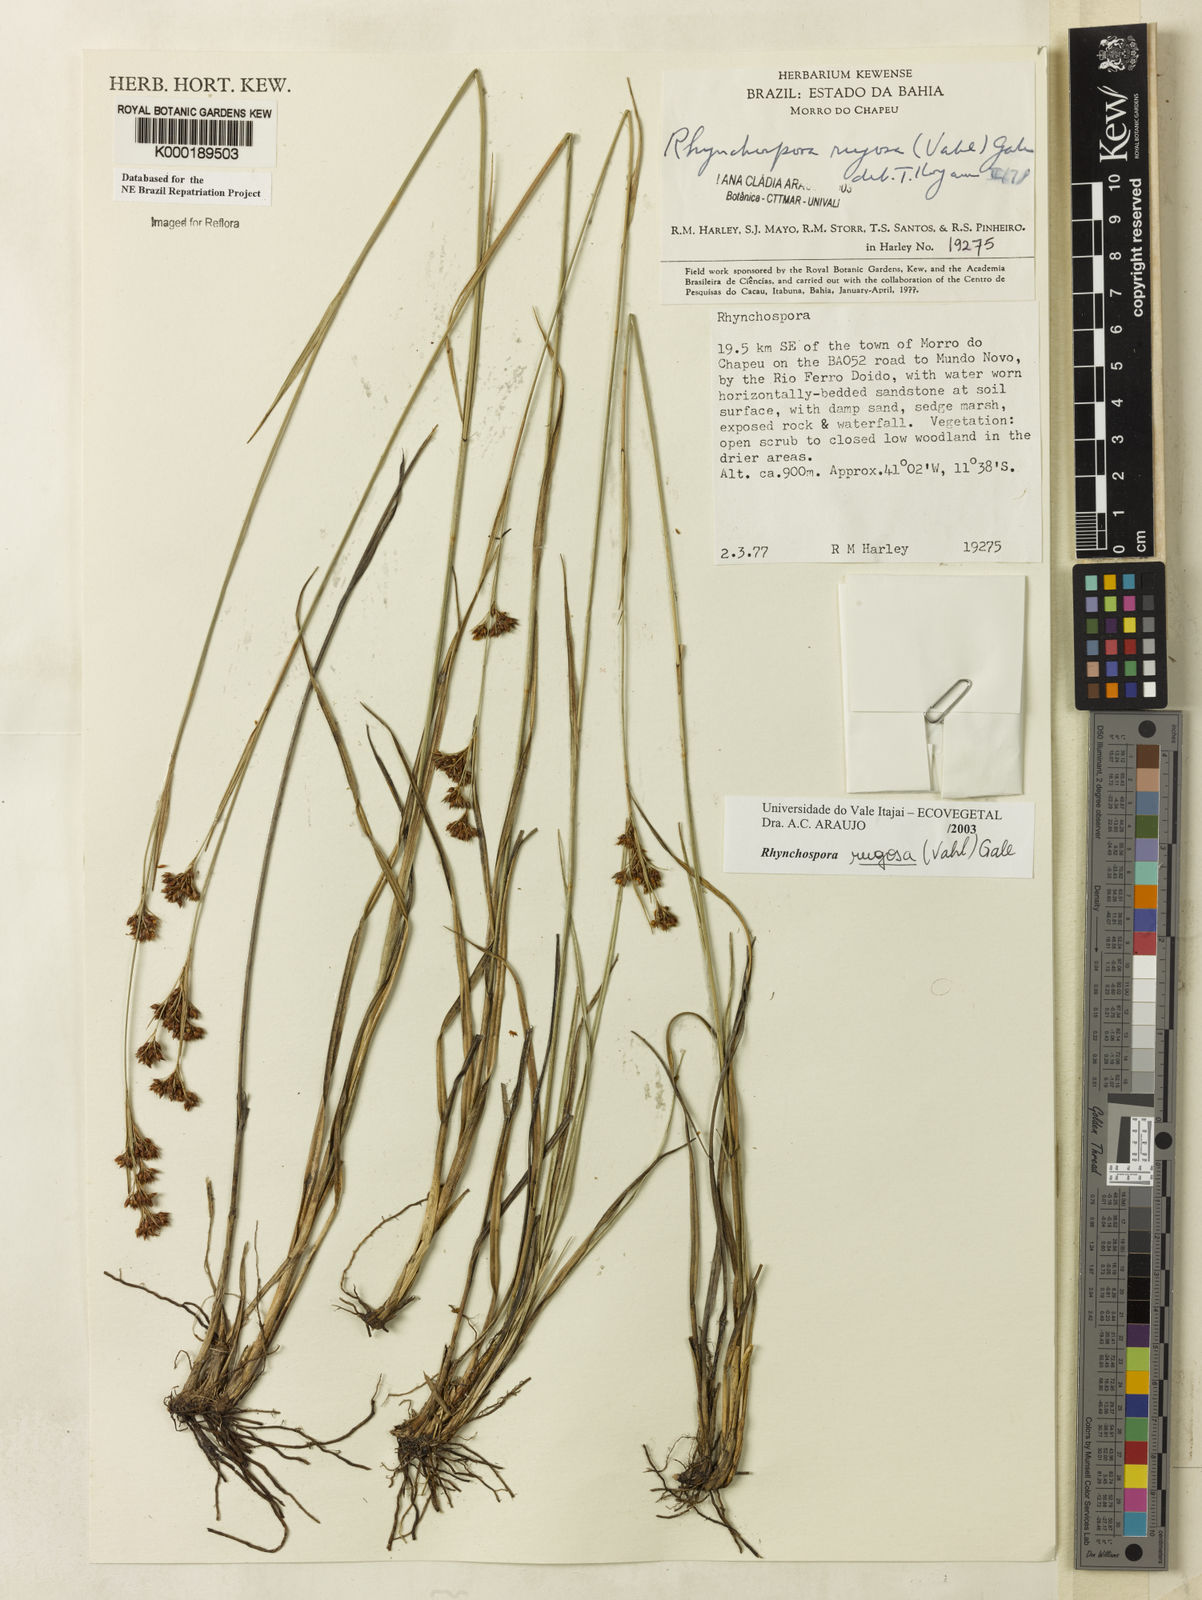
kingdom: Plantae
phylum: Tracheophyta
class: Liliopsida
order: Poales
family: Cyperaceae
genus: Rhynchospora
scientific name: Rhynchospora rugosa
